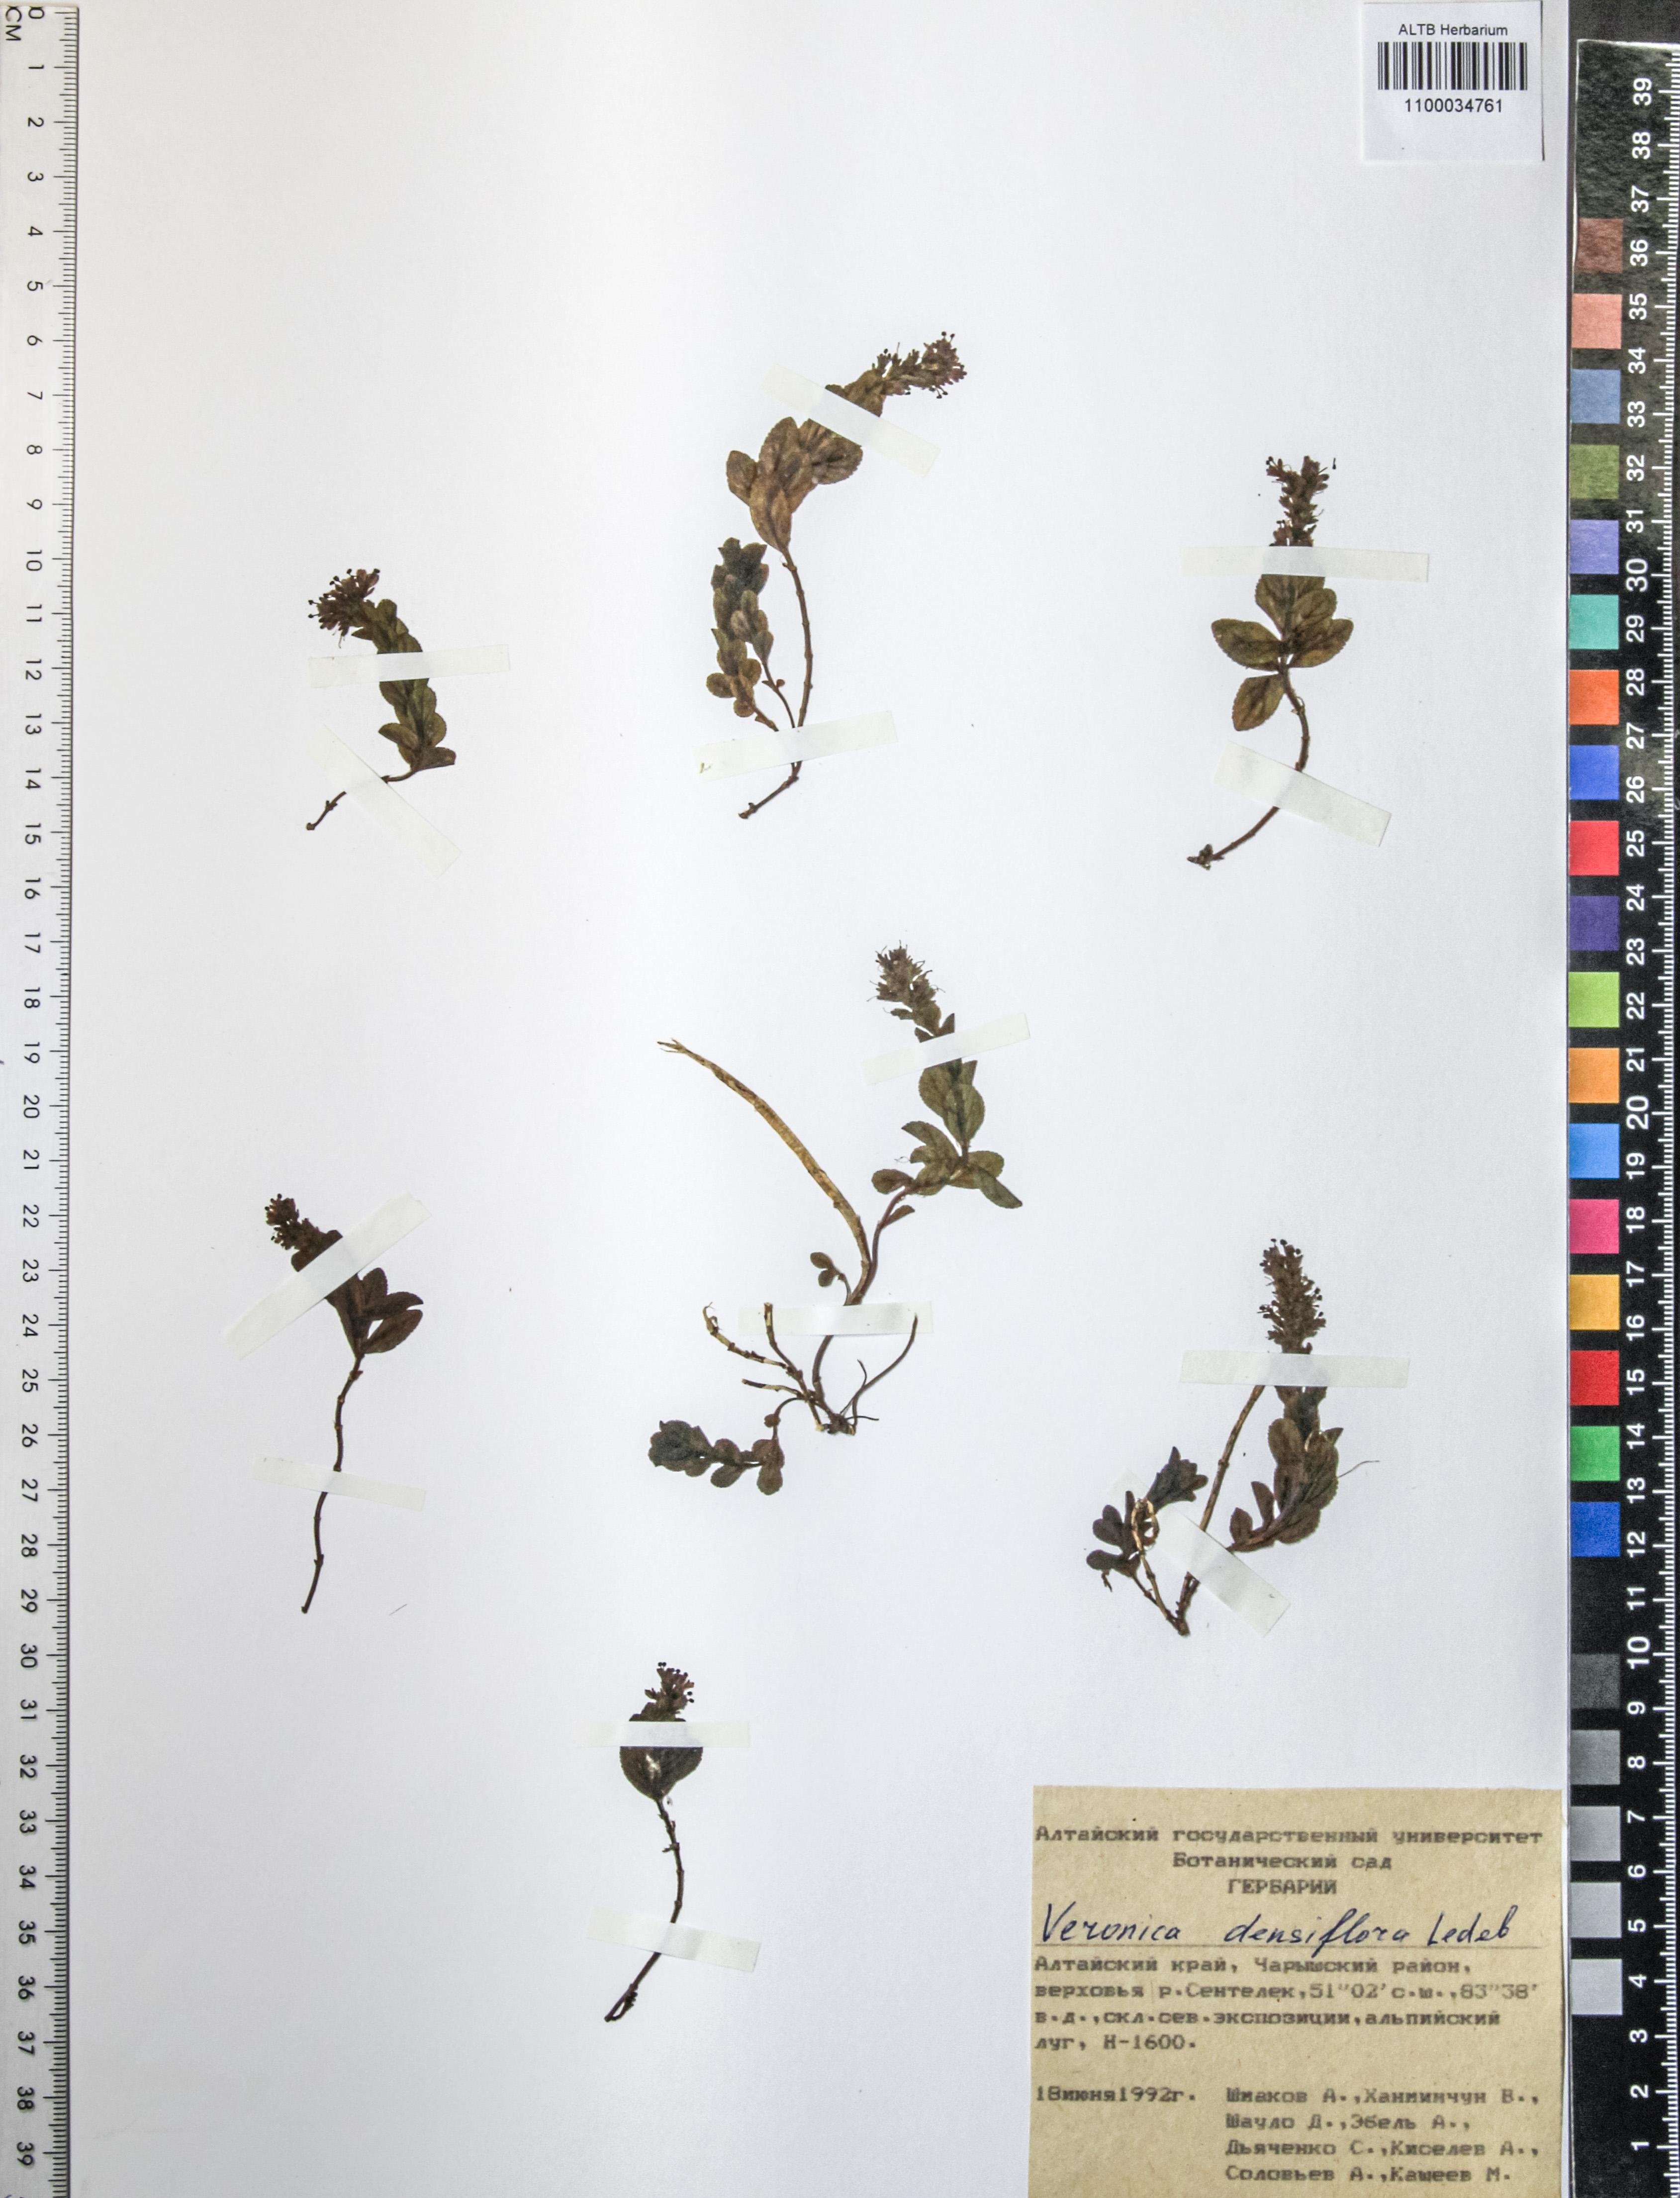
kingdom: Plantae
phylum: Tracheophyta
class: Magnoliopsida
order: Lamiales
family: Plantaginaceae
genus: Veronica
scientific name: Veronica densiflora
